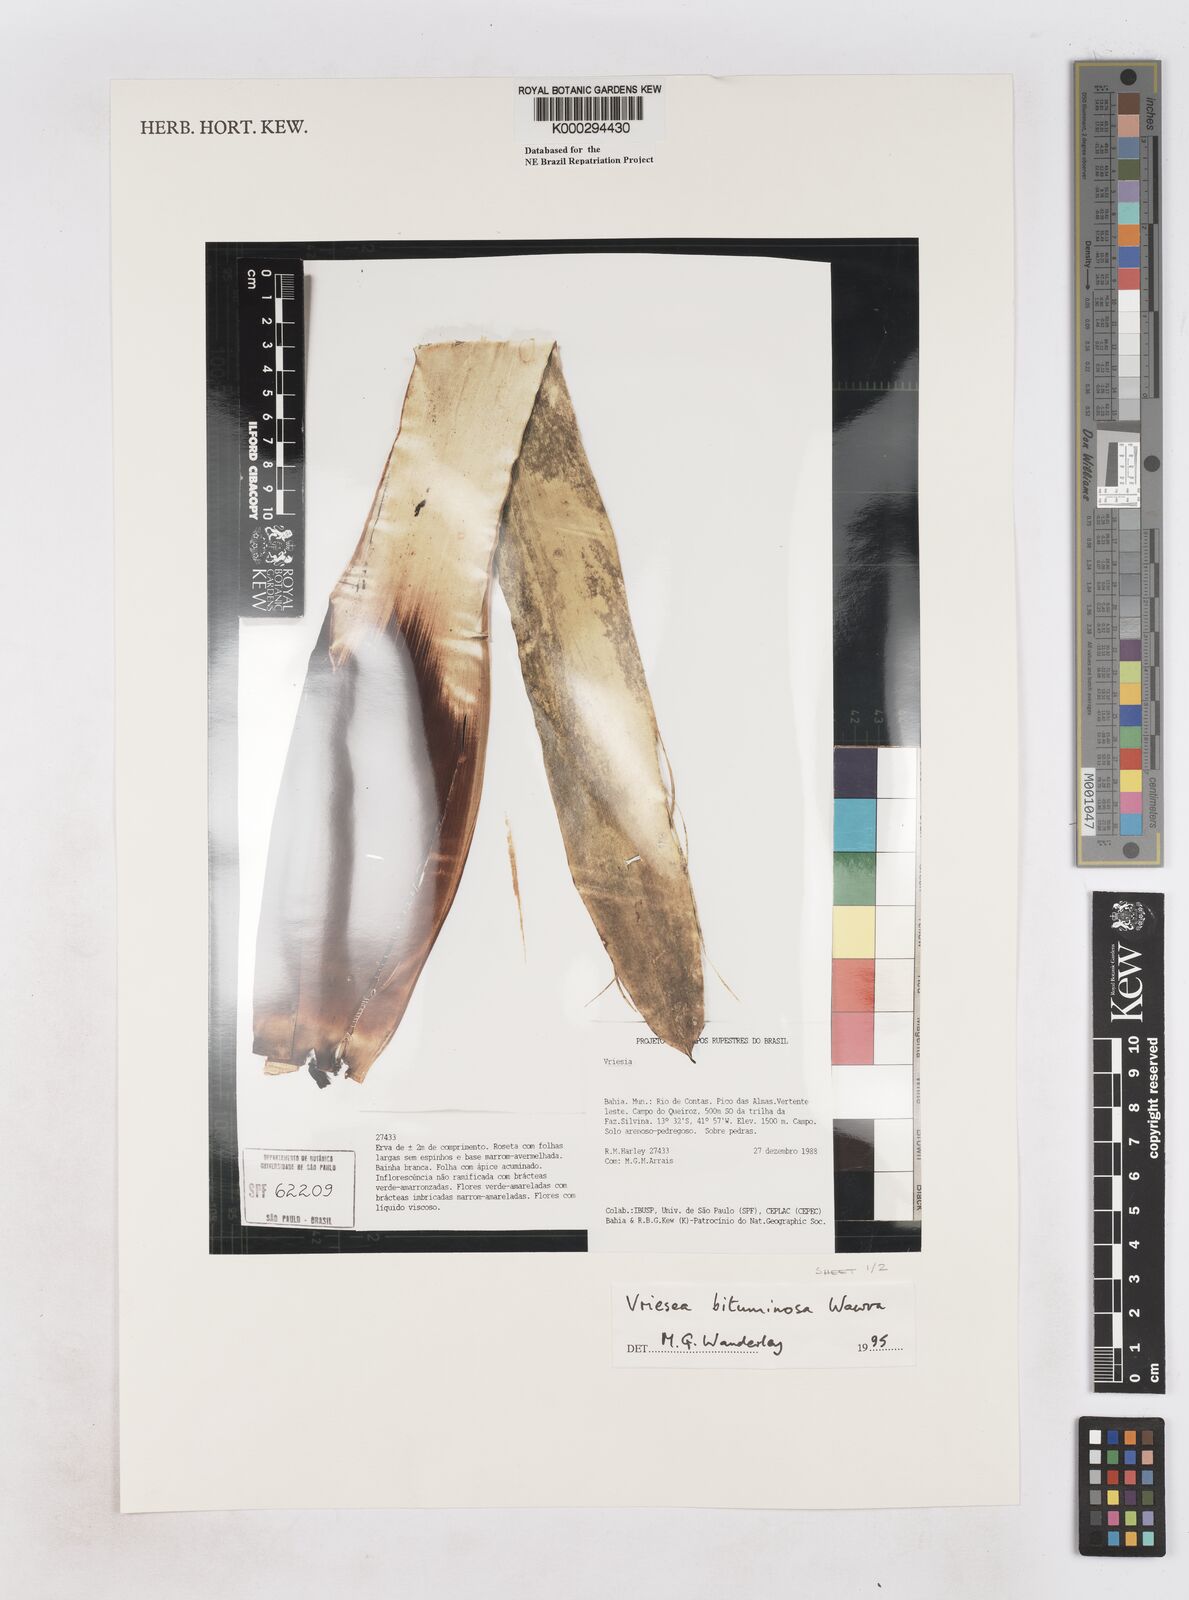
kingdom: Plantae
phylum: Tracheophyta
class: Liliopsida
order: Poales
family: Bromeliaceae
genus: Vriesea
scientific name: Vriesea bituminosa
